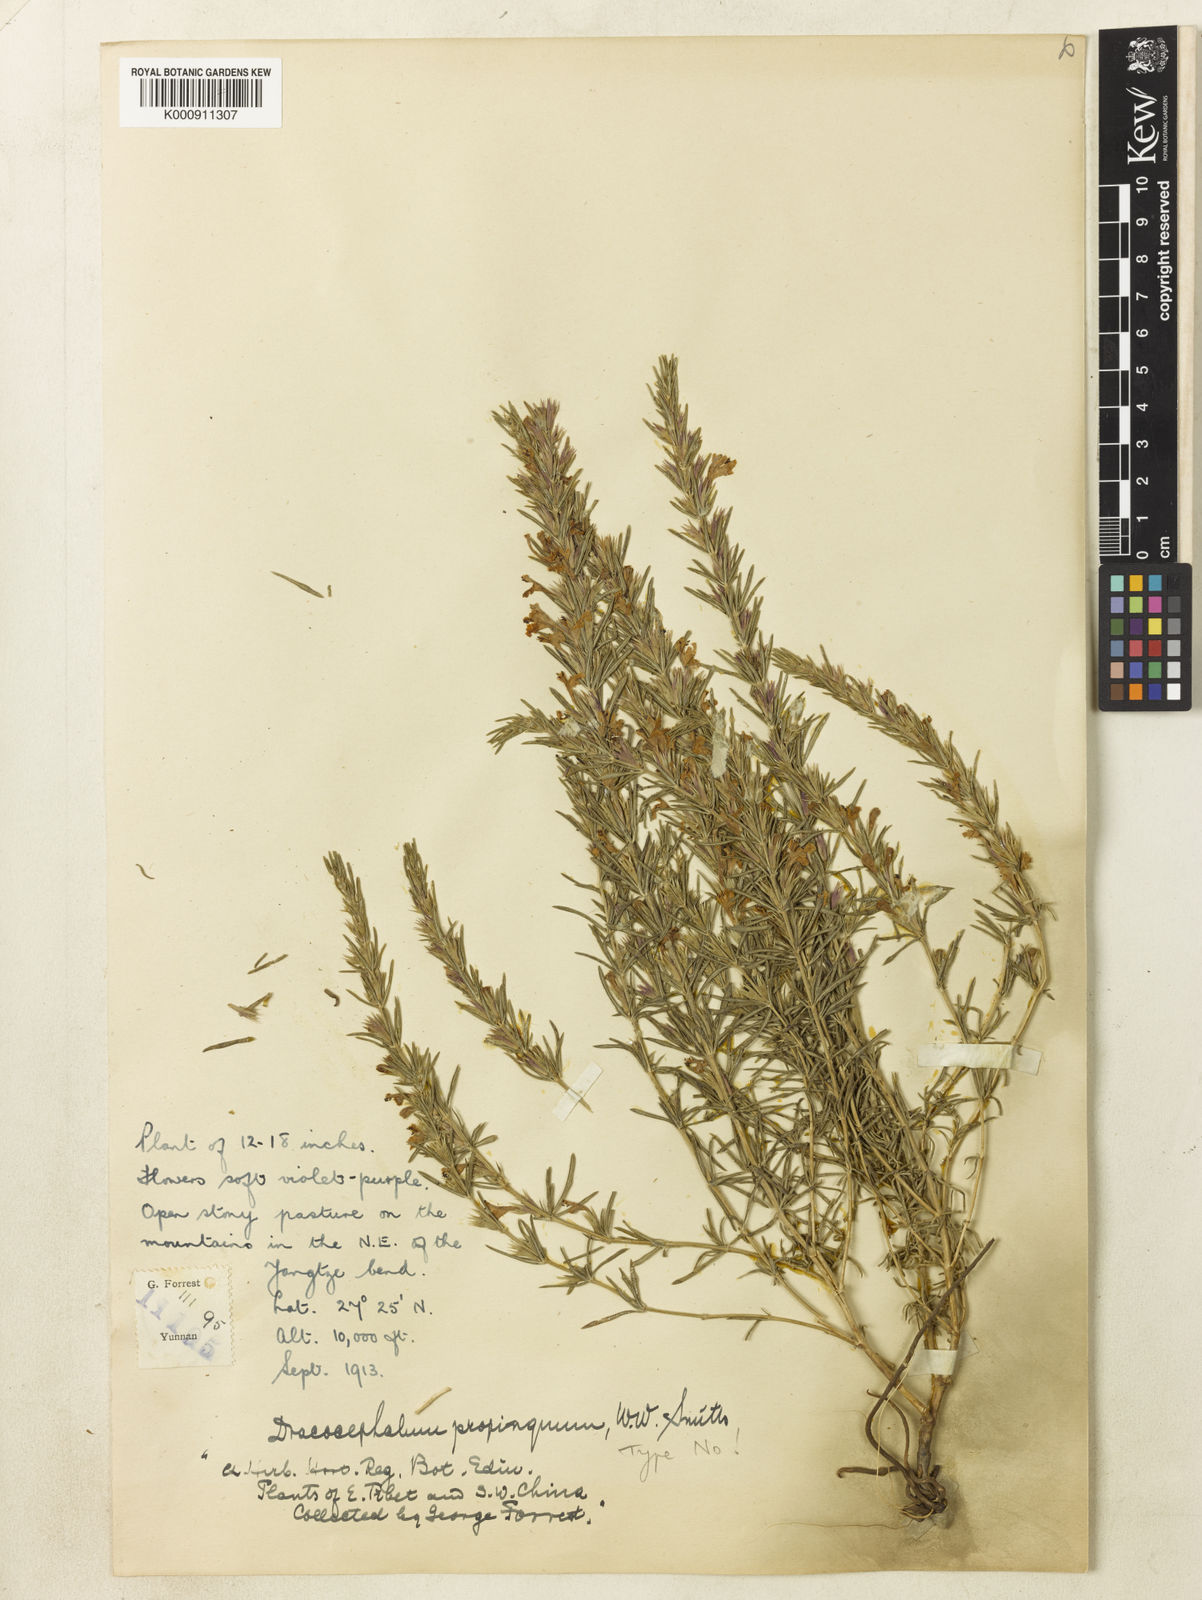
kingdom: Plantae
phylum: Tracheophyta
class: Magnoliopsida
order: Lamiales
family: Lamiaceae
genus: Dracocephalum
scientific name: Dracocephalum propinquum
